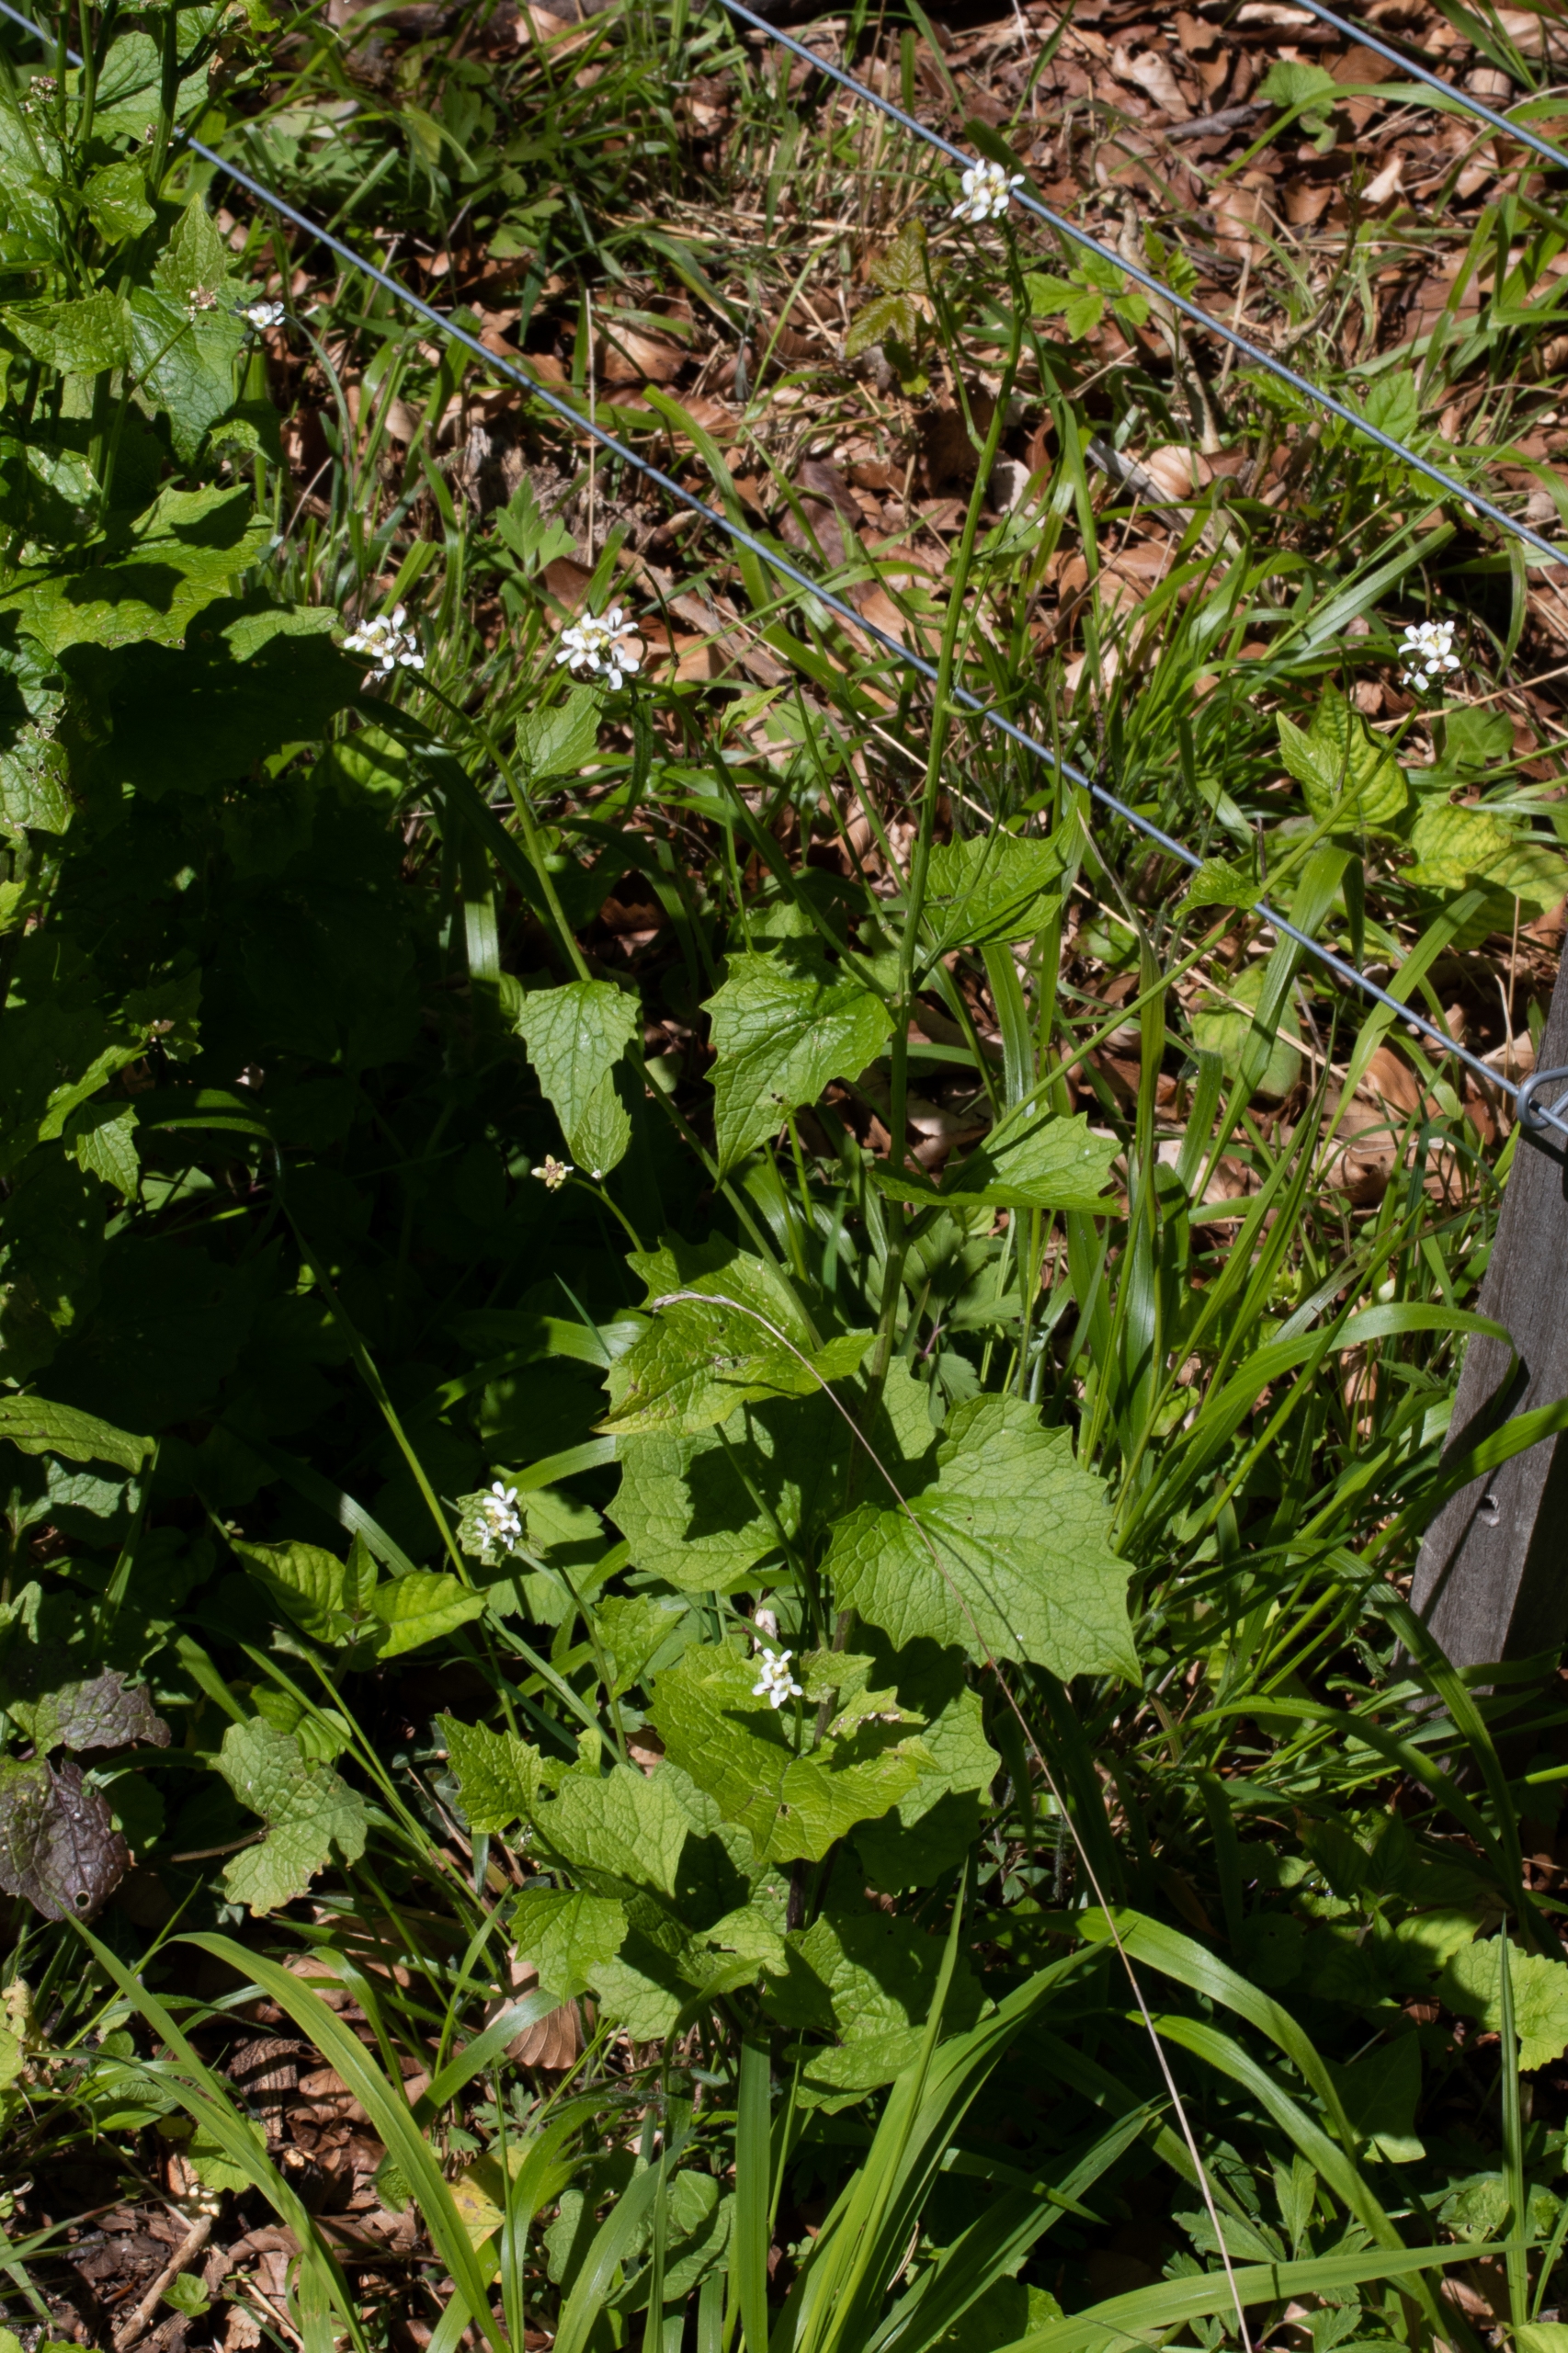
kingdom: Plantae
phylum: Tracheophyta
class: Magnoliopsida
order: Brassicales
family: Brassicaceae
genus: Alliaria
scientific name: Alliaria petiolata
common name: Løgkarse
